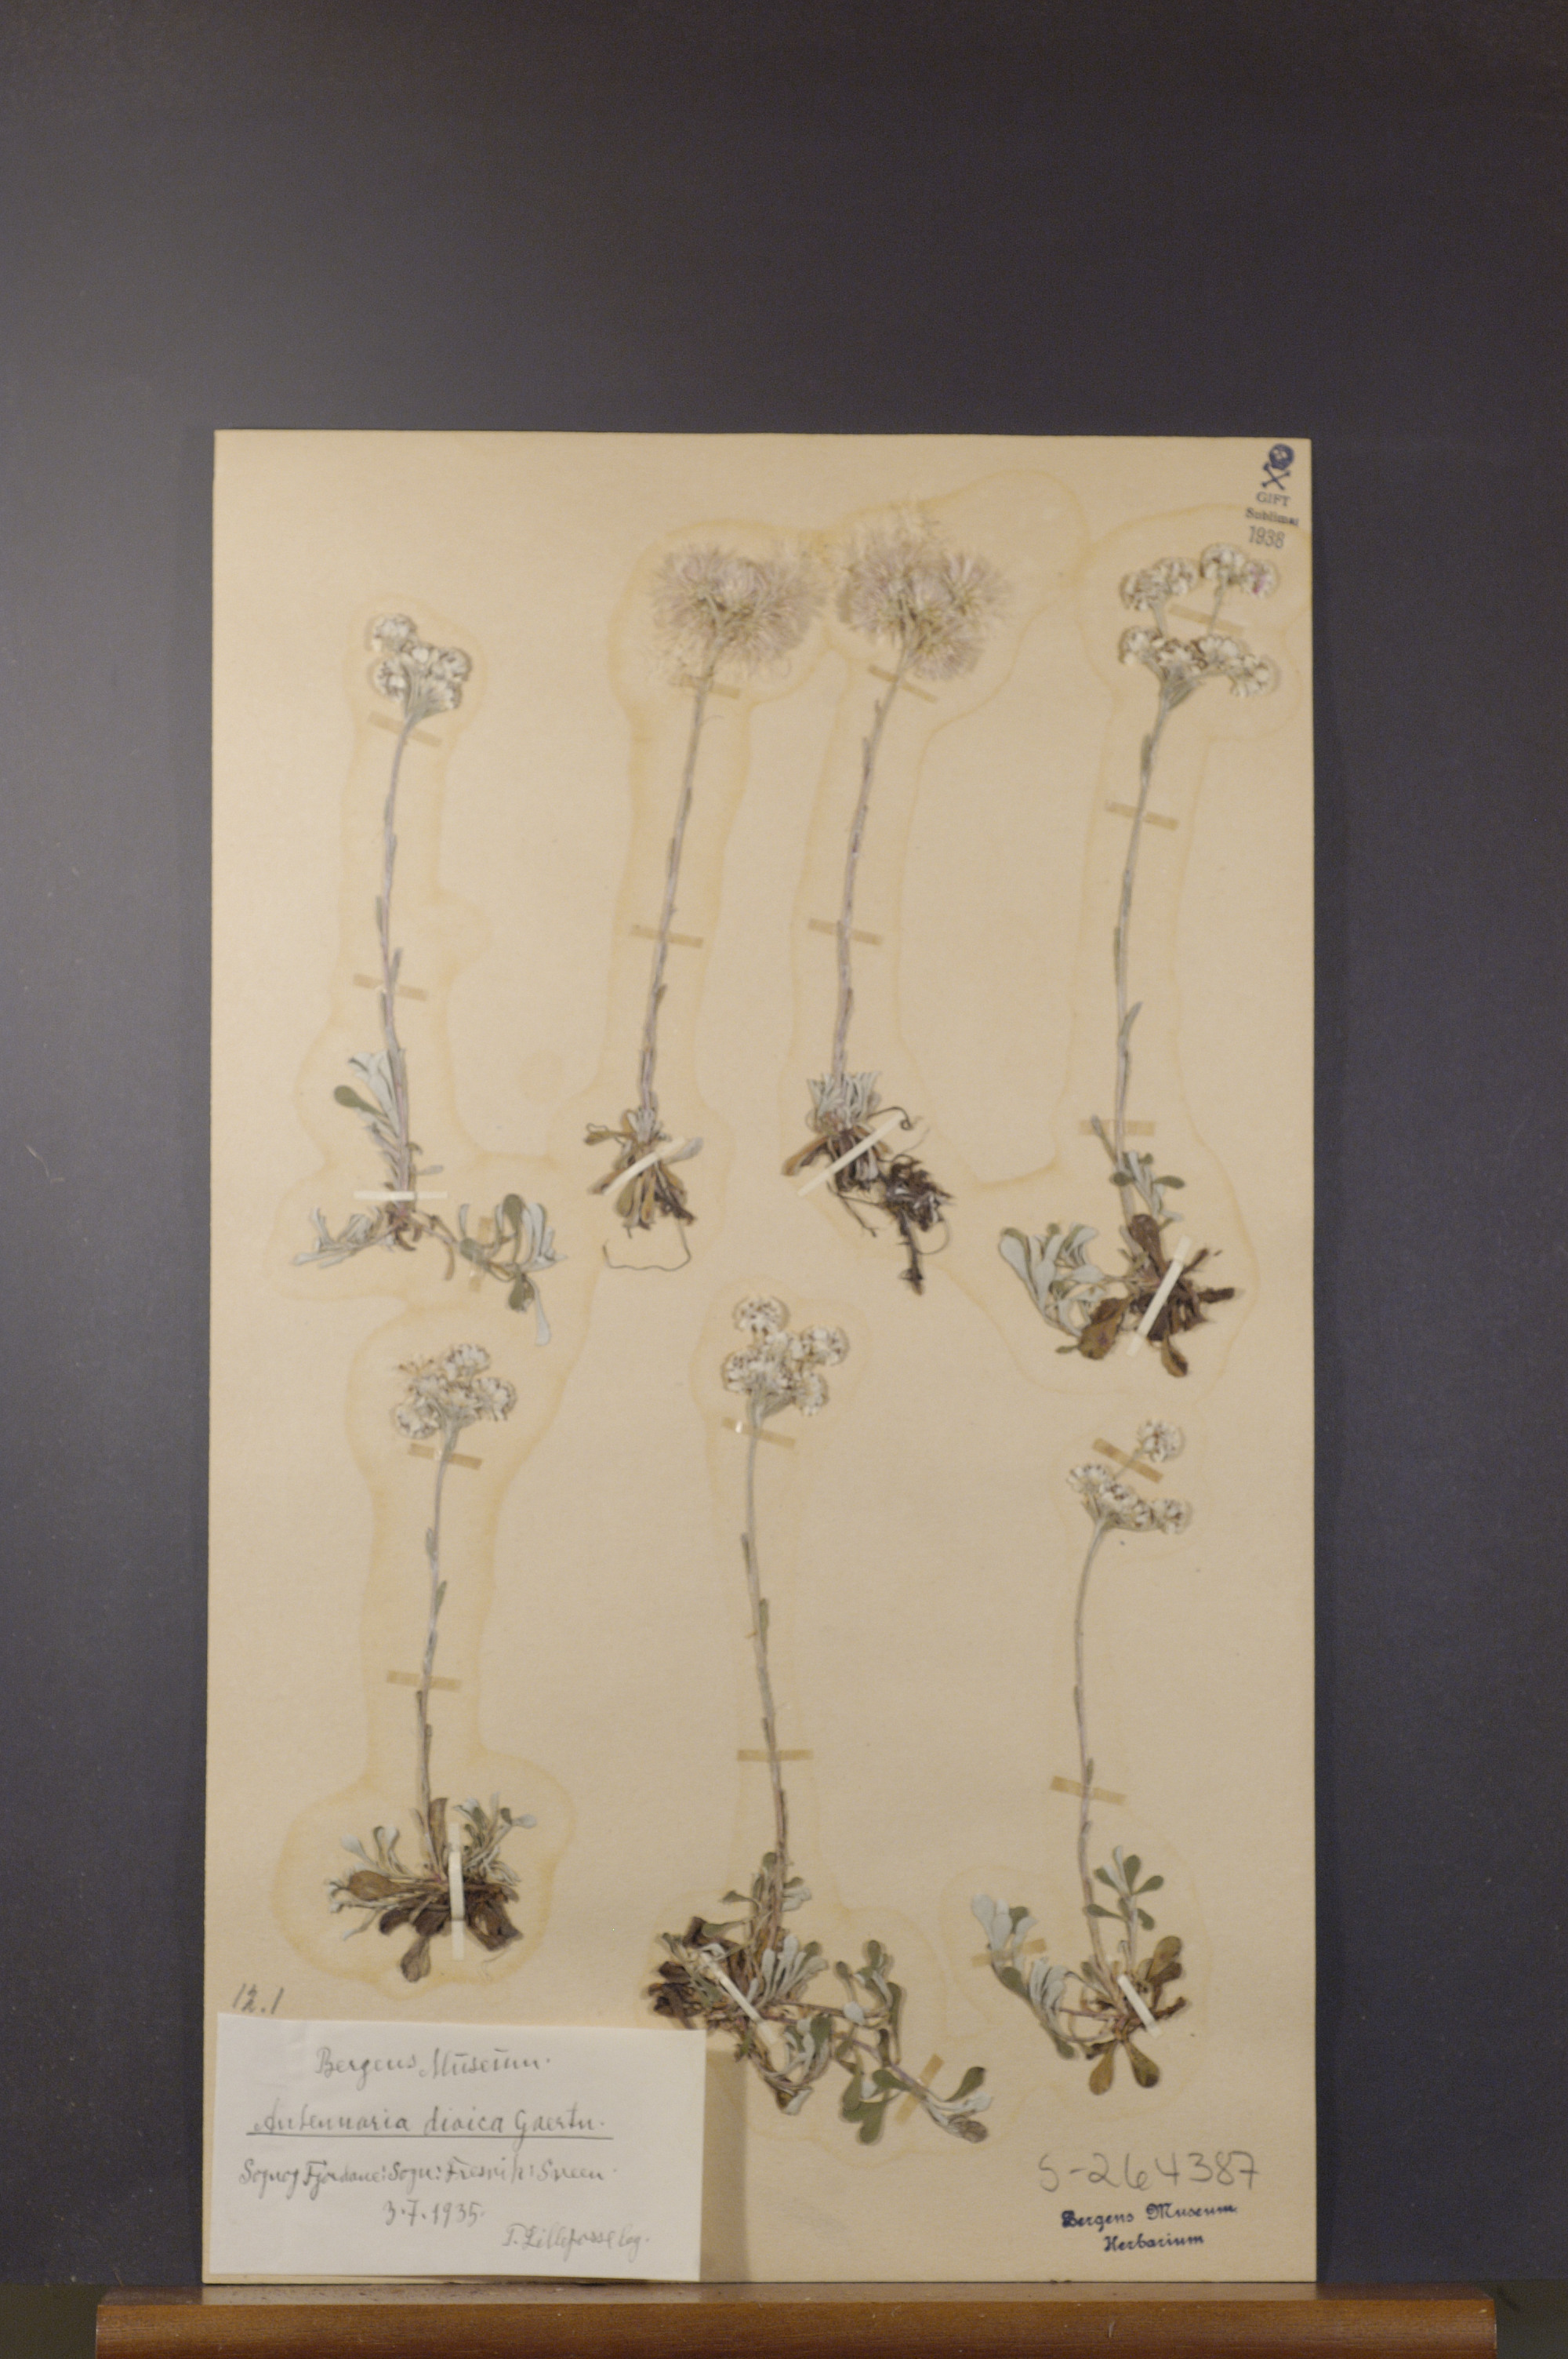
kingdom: Plantae
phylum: Tracheophyta
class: Magnoliopsida
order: Asterales
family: Asteraceae
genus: Antennaria
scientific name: Antennaria dioica
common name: Mountain everlasting
